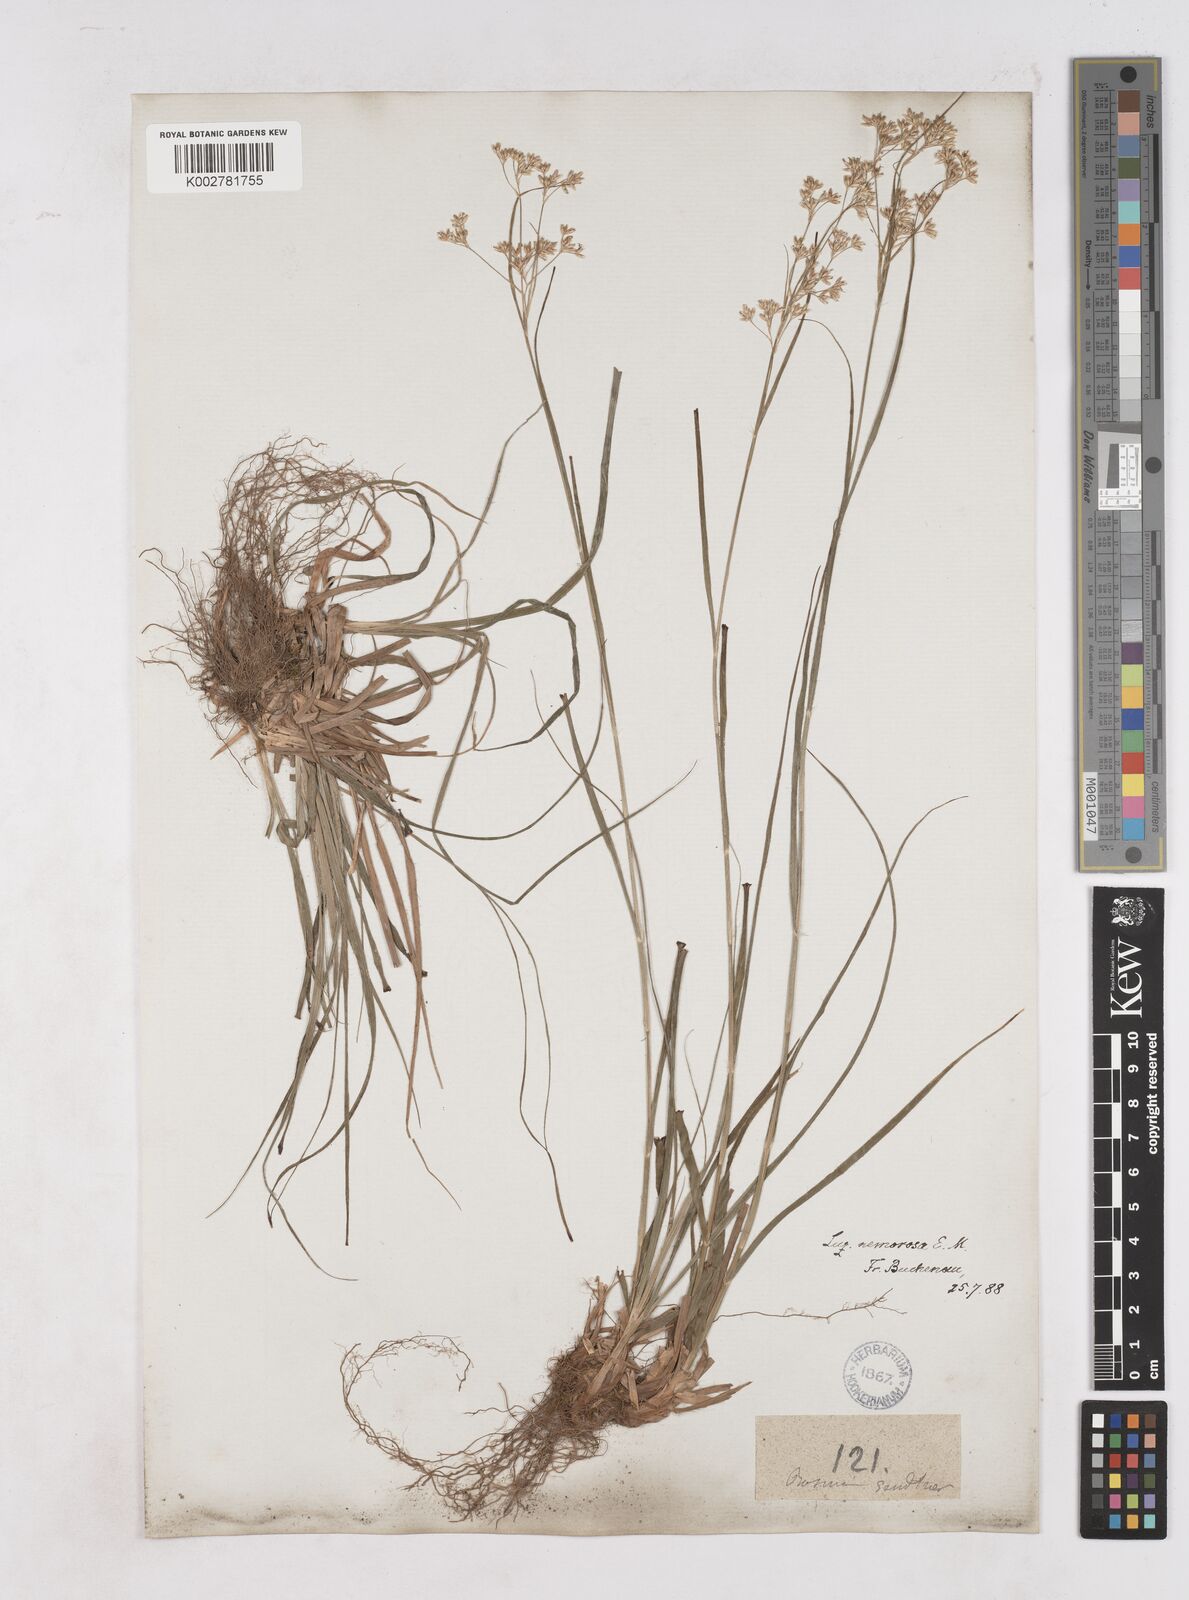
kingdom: Plantae
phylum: Tracheophyta
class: Liliopsida
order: Poales
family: Juncaceae
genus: Luzula
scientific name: Luzula luzuloides
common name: White wood-rush
